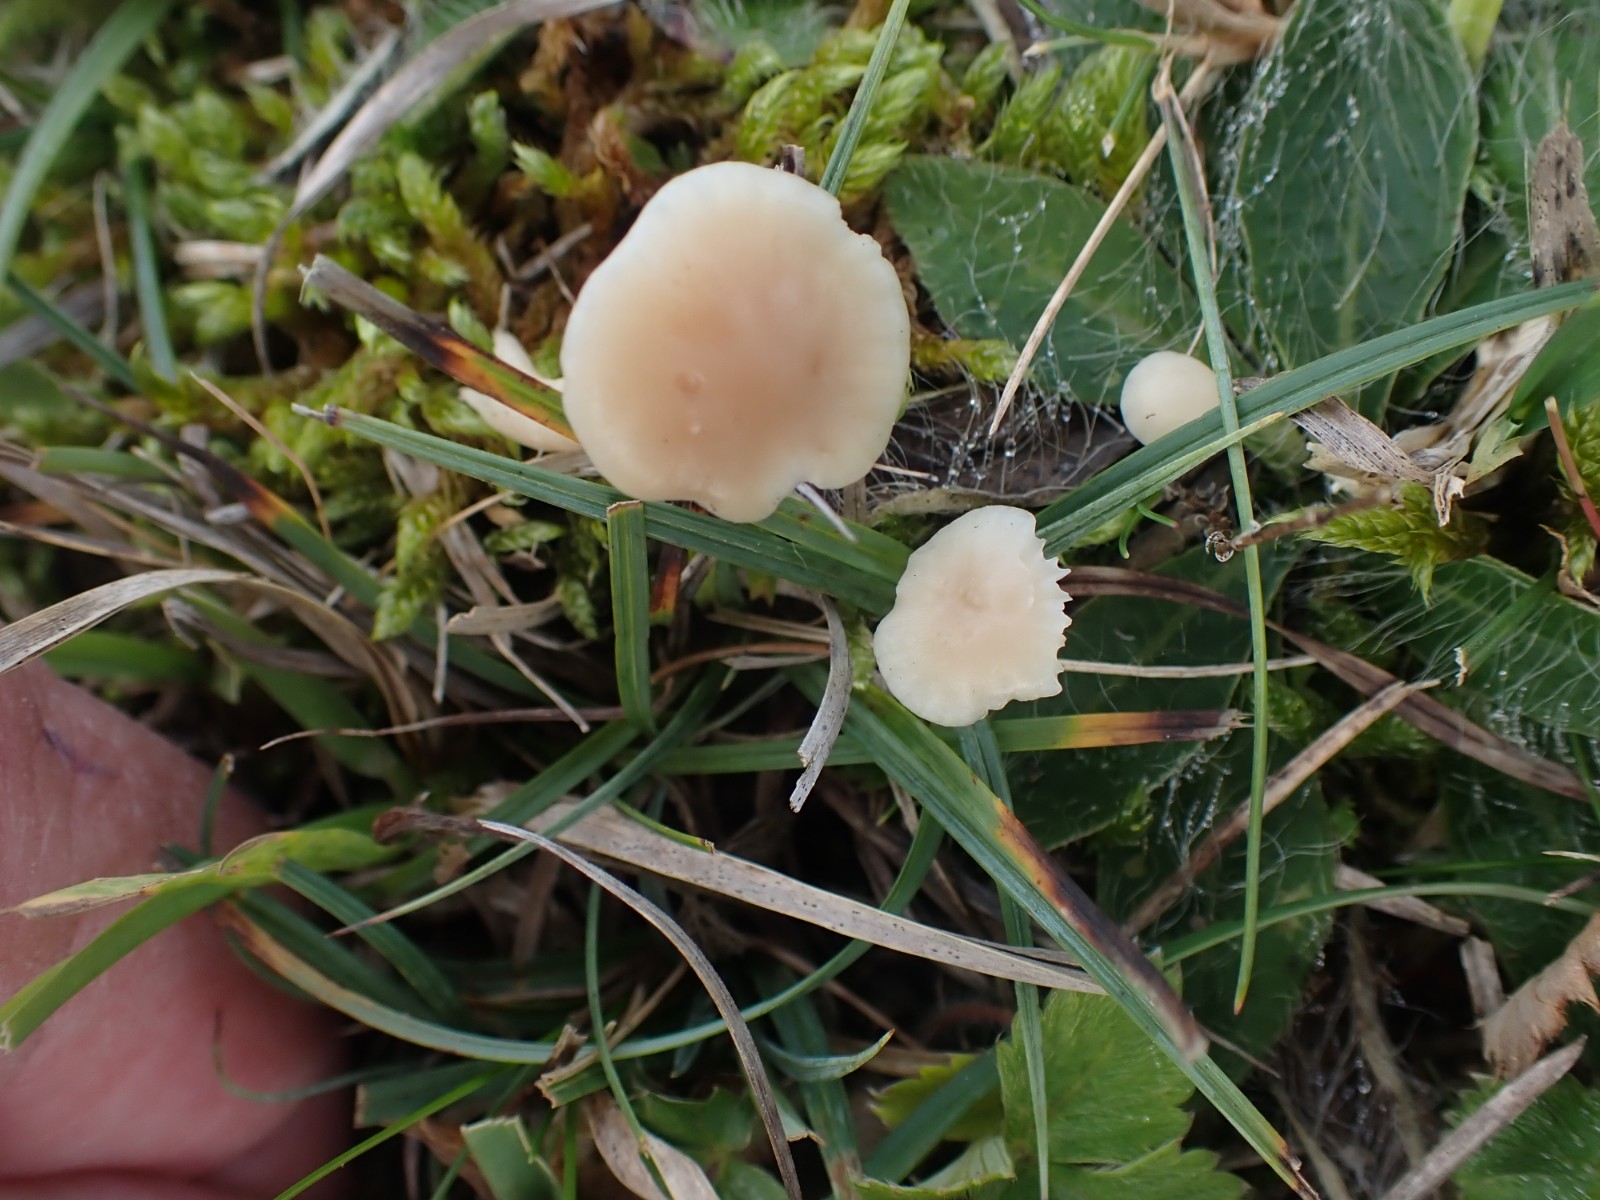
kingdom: Fungi
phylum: Basidiomycota
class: Agaricomycetes
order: Agaricales
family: Hygrophoraceae
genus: Cuphophyllus
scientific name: Cuphophyllus
